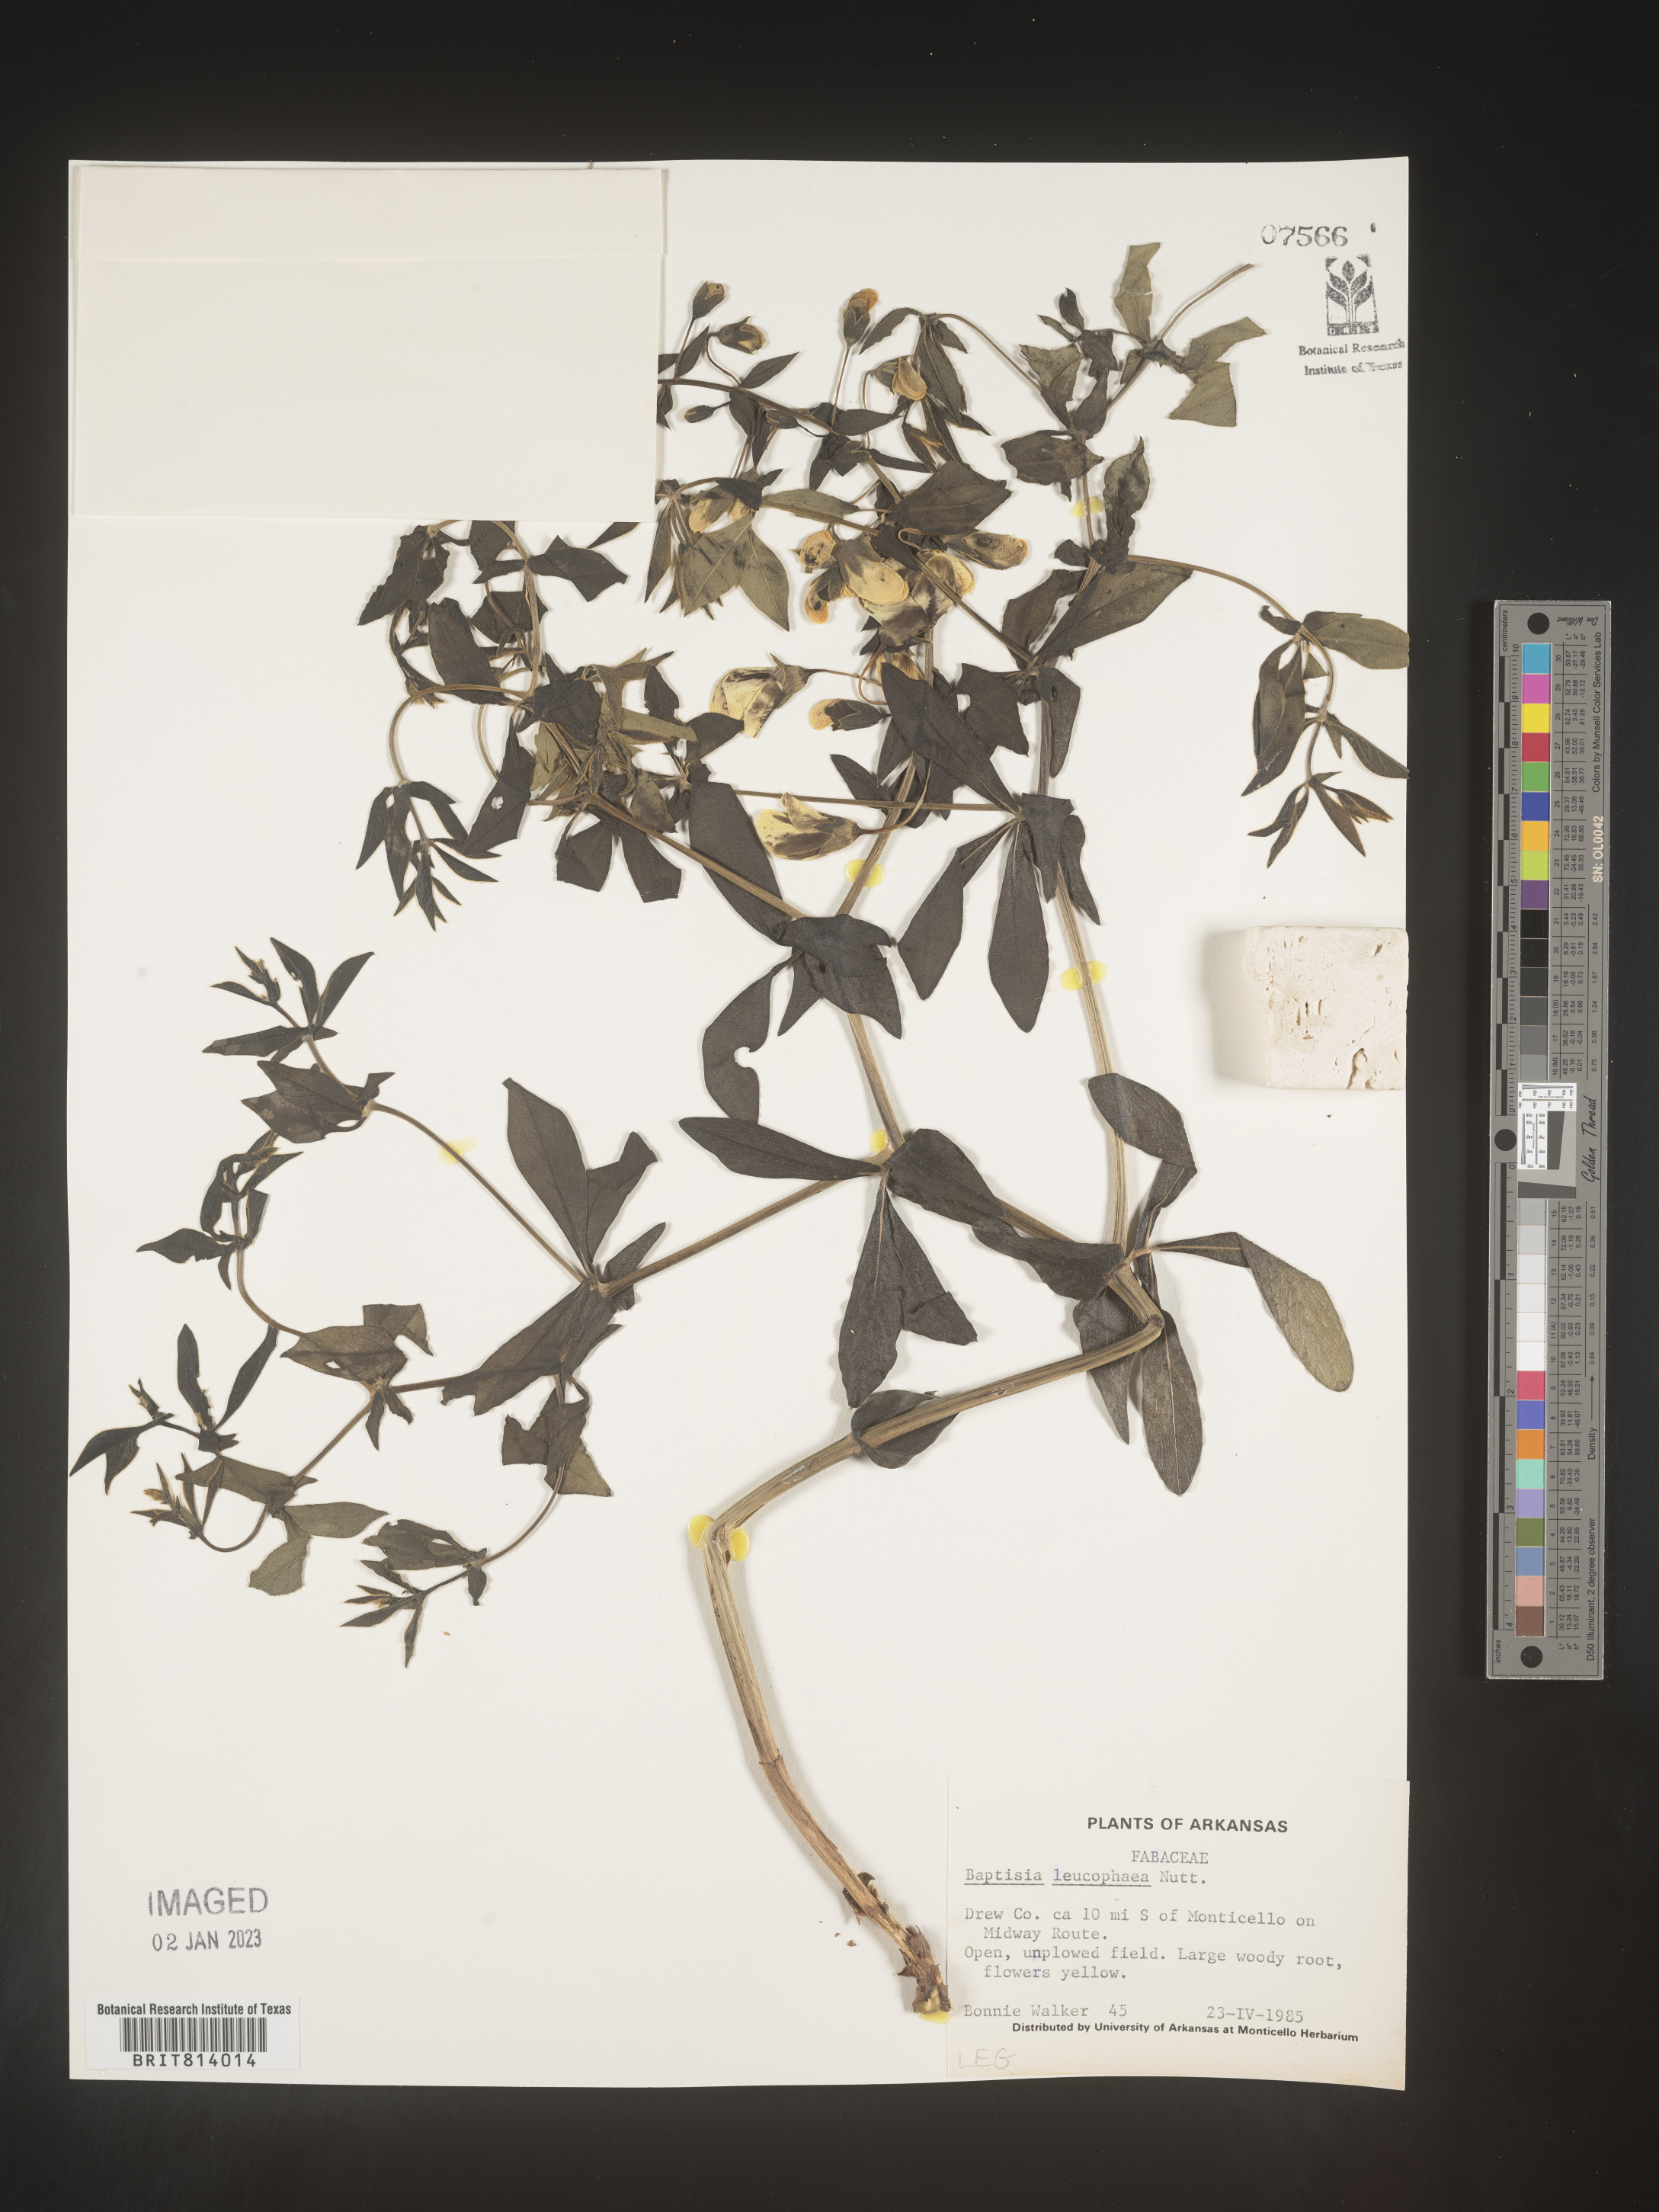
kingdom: Plantae
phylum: Tracheophyta
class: Magnoliopsida
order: Fabales
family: Fabaceae
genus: Baptisia
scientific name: Baptisia bracteata
